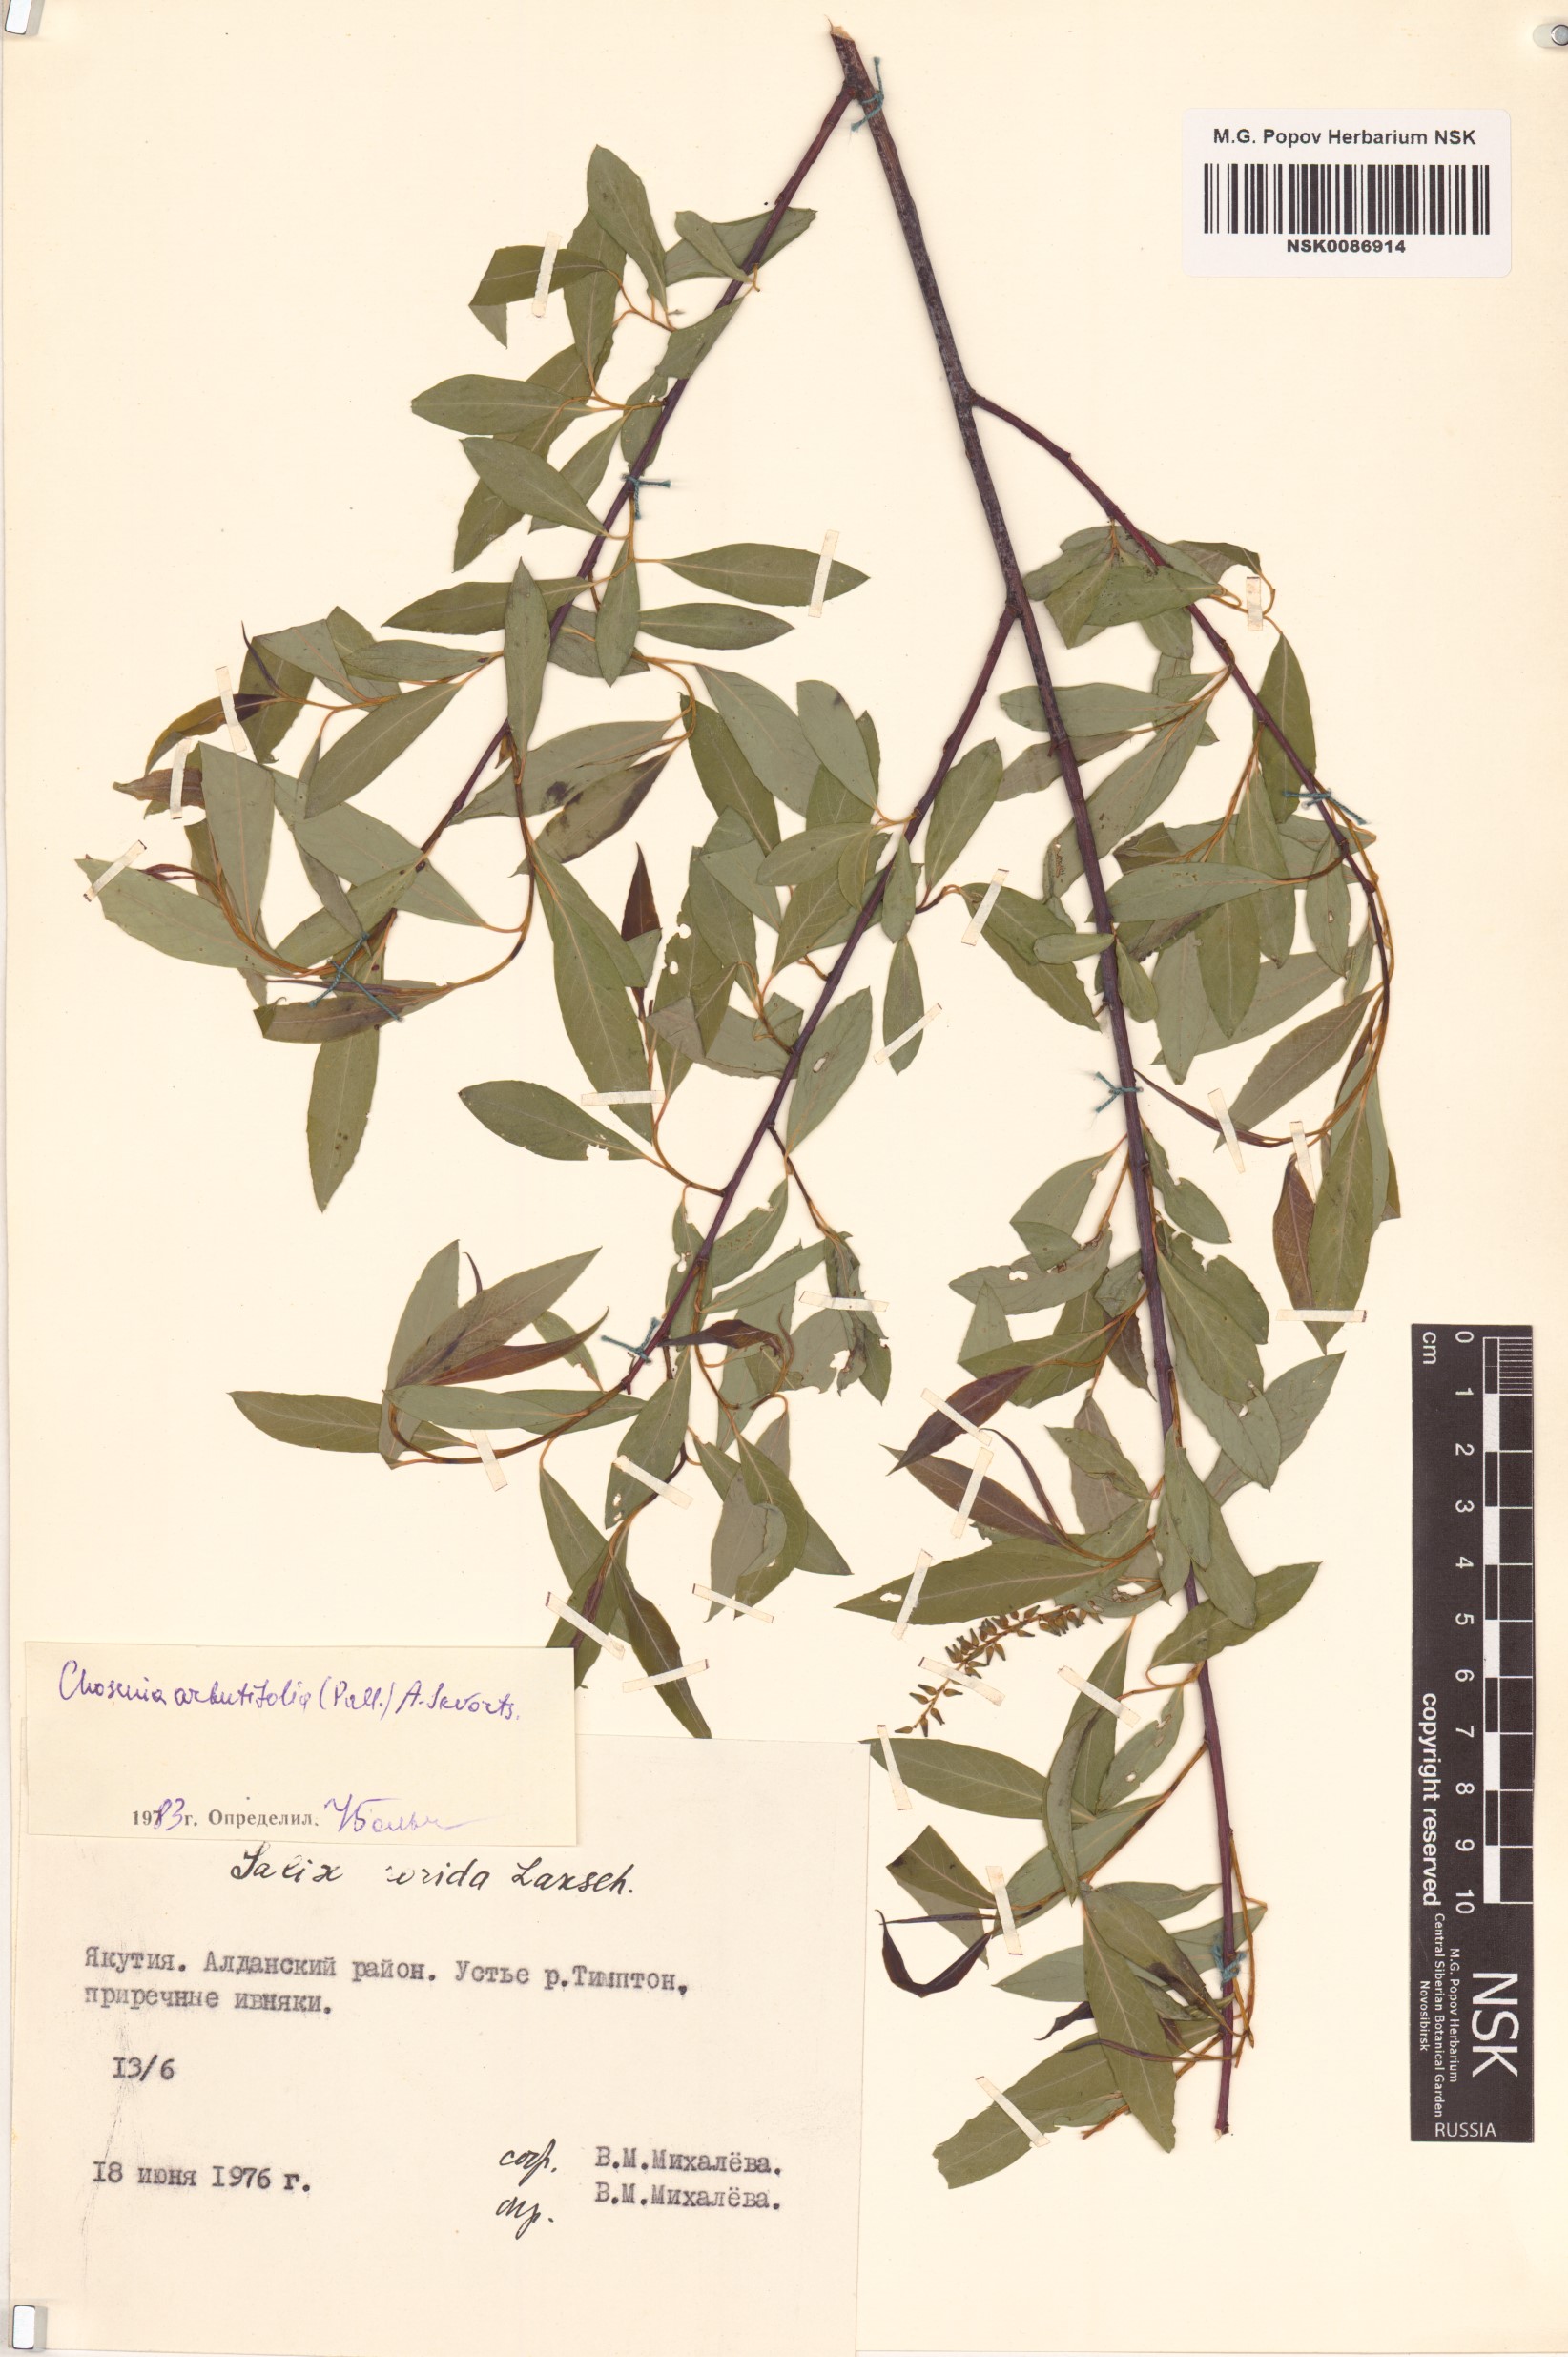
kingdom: Plantae
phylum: Tracheophyta
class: Magnoliopsida
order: Malpighiales
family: Salicaceae
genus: Chosenia
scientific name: Chosenia arbutifolia
